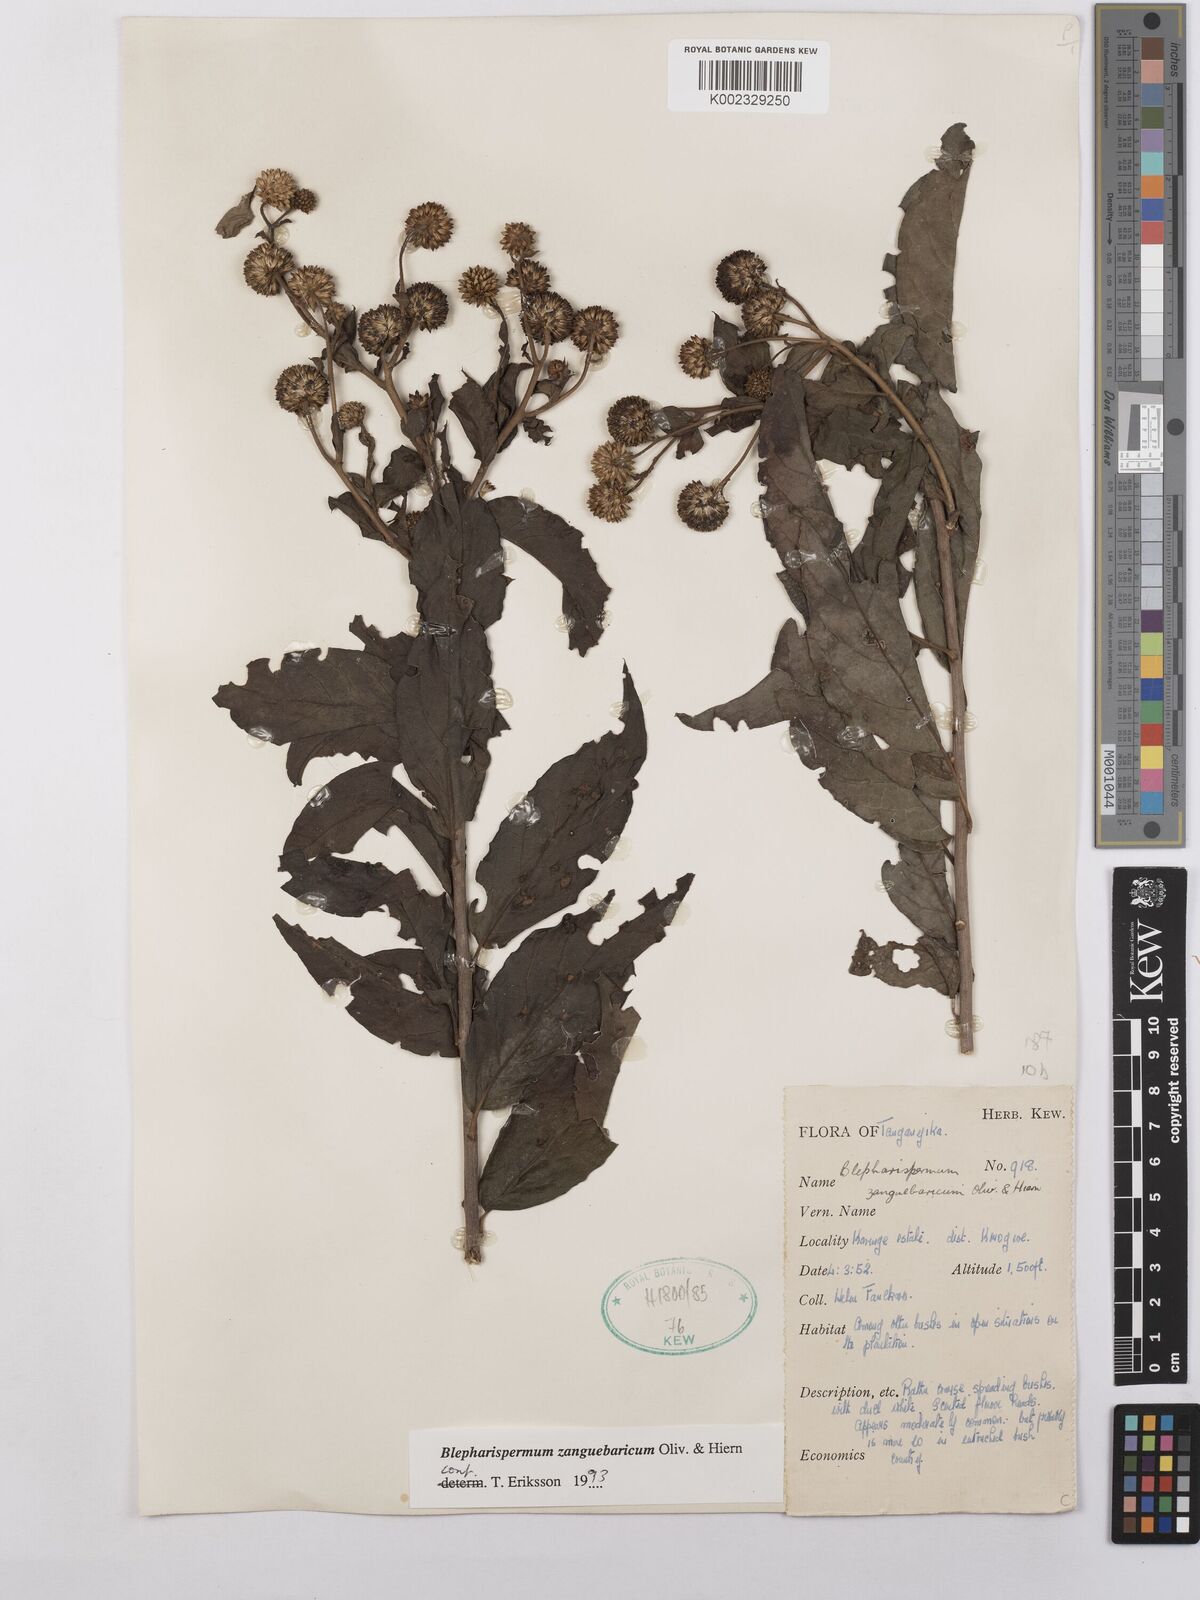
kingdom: Plantae
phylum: Tracheophyta
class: Magnoliopsida
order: Asterales
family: Asteraceae
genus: Blepharispermum
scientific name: Blepharispermum zanguebaricum
